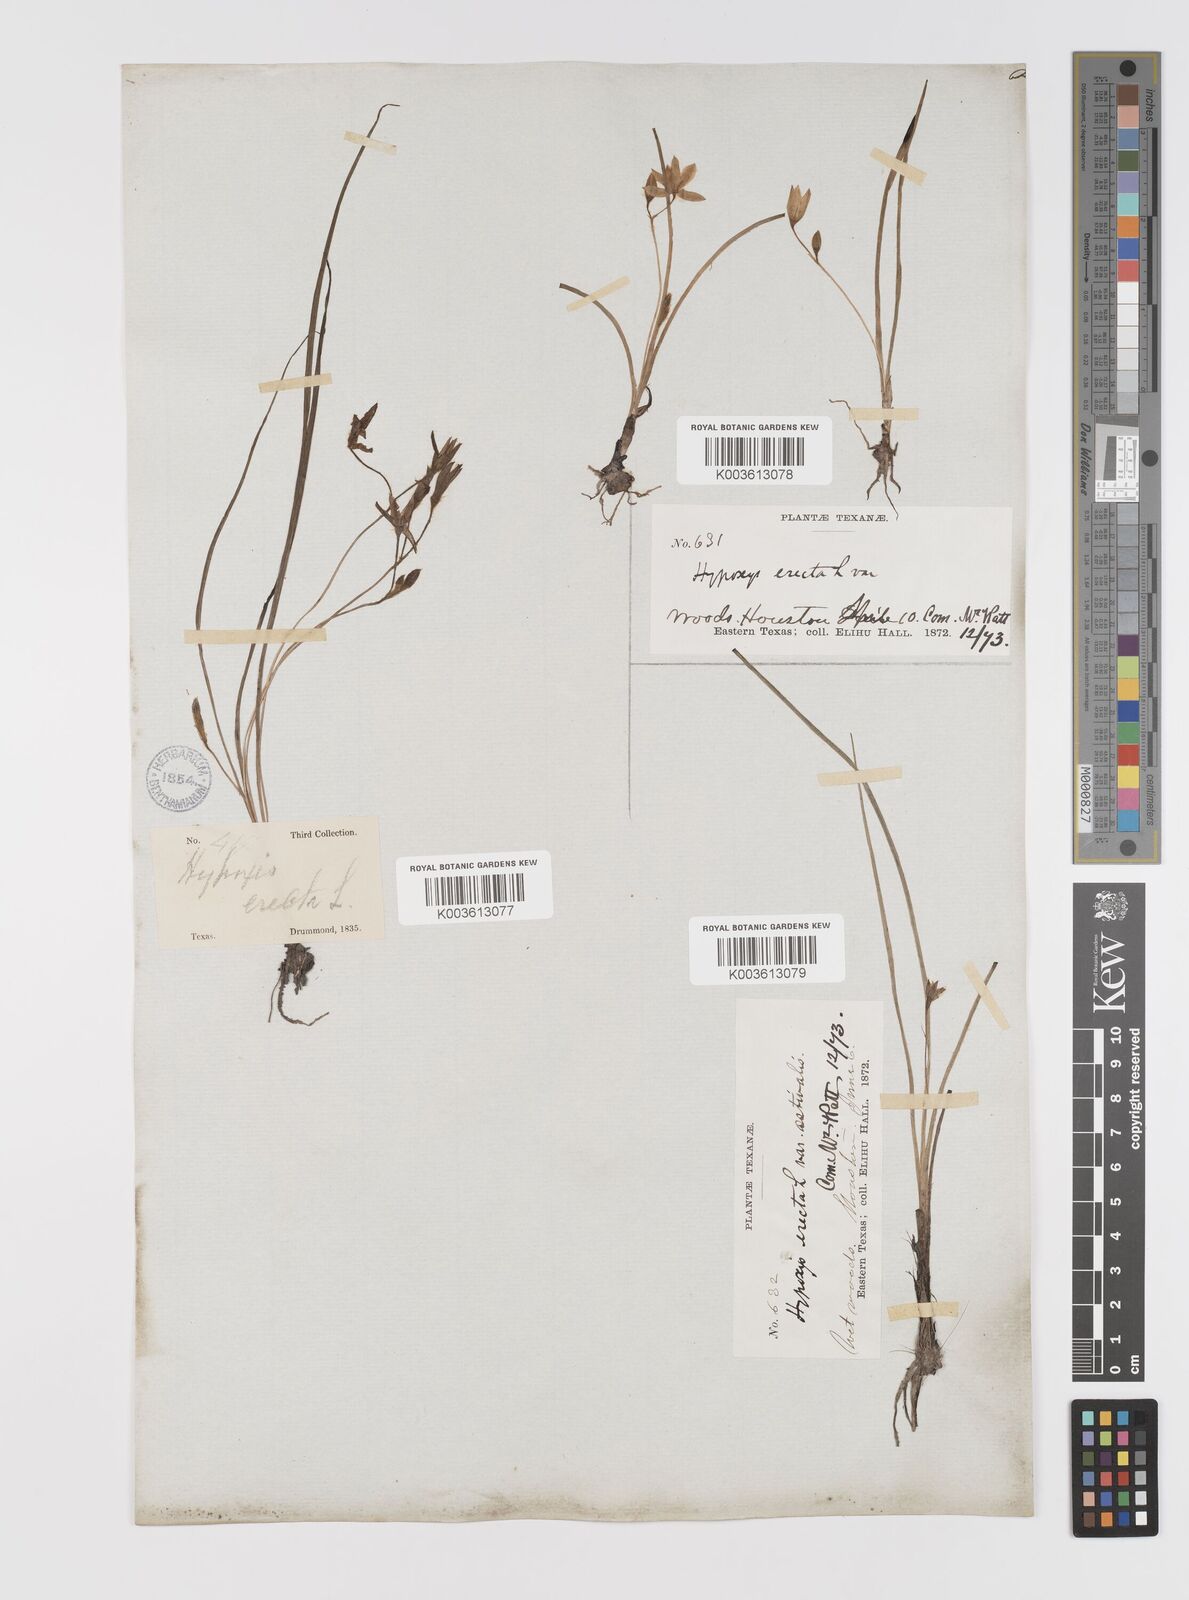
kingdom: Plantae
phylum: Tracheophyta
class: Liliopsida
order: Asparagales
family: Hypoxidaceae
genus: Hypoxis
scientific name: Hypoxis hirsuta
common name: Common goldstar
